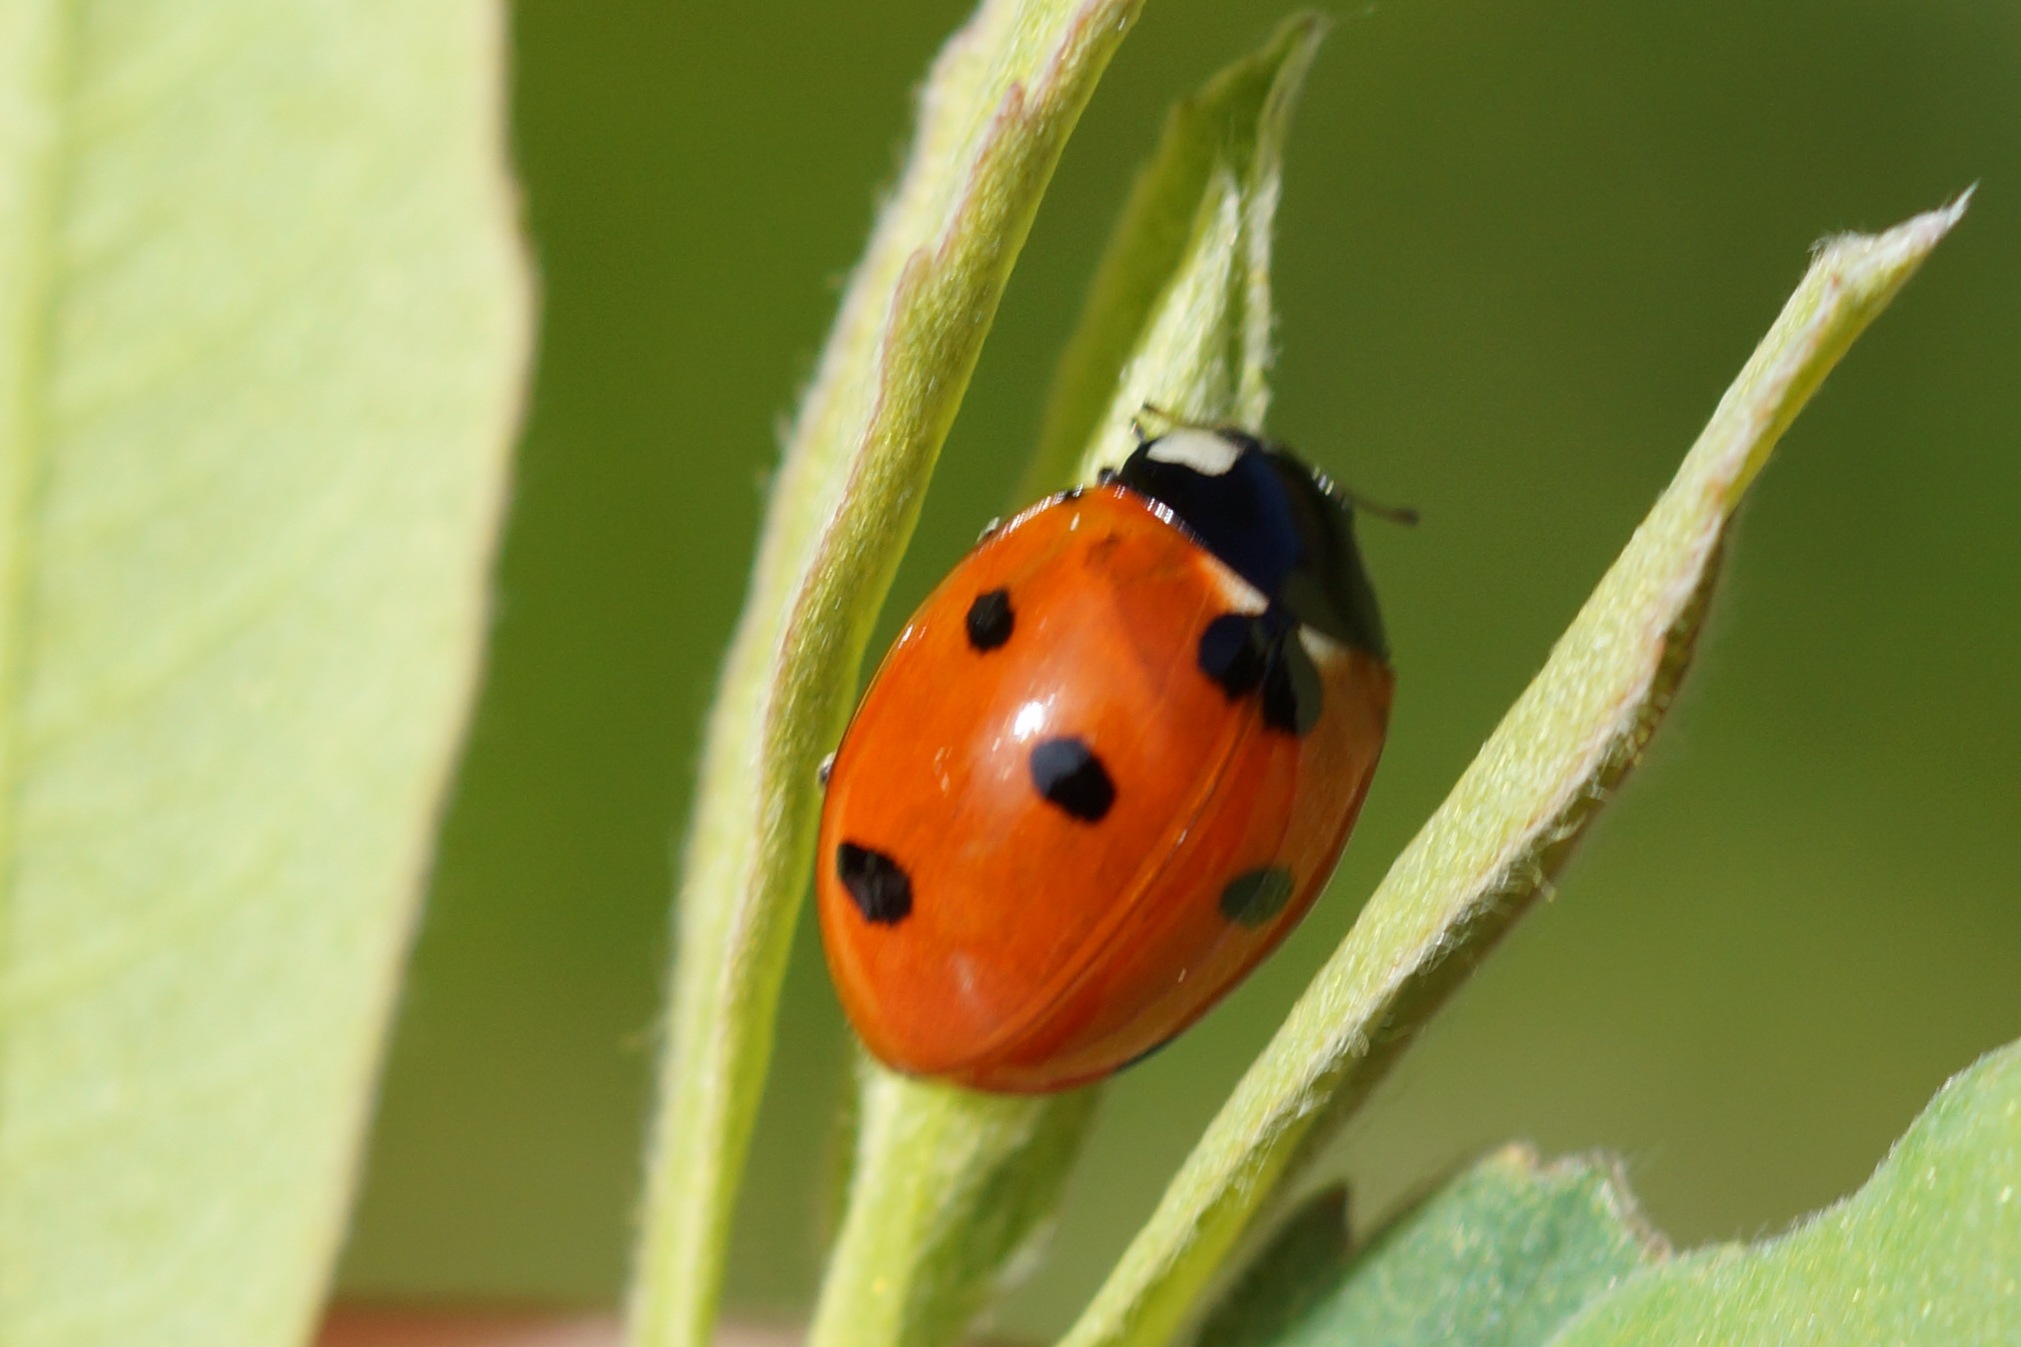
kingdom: Animalia
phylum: Arthropoda
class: Insecta
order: Coleoptera
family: Coccinellidae
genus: Coccinella
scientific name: Coccinella septempunctata
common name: Syvplettet mariehøne
